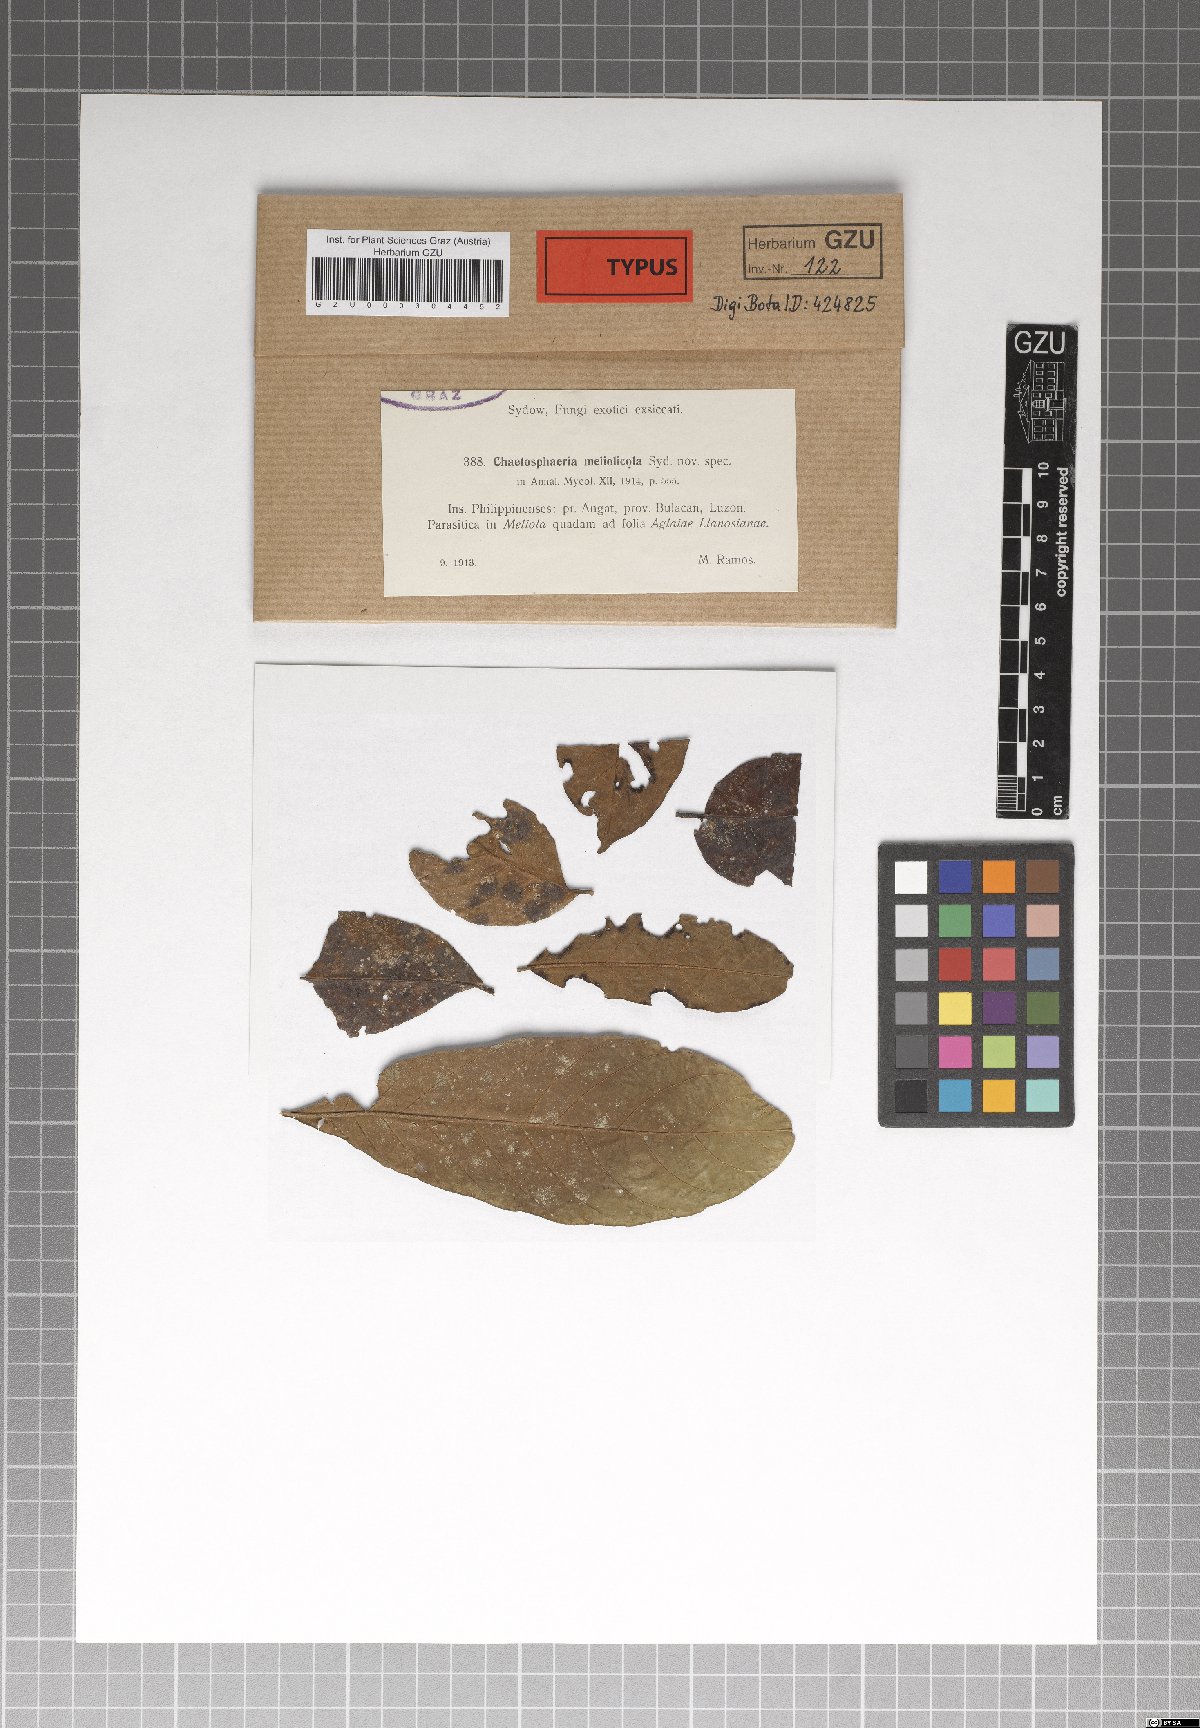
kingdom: Fungi
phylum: Ascomycota
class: Sordariomycetes
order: Chaetosphaeriales
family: Chaetosphaeriaceae
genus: Chaetosphaeria
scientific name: Chaetosphaeria meliolicola
